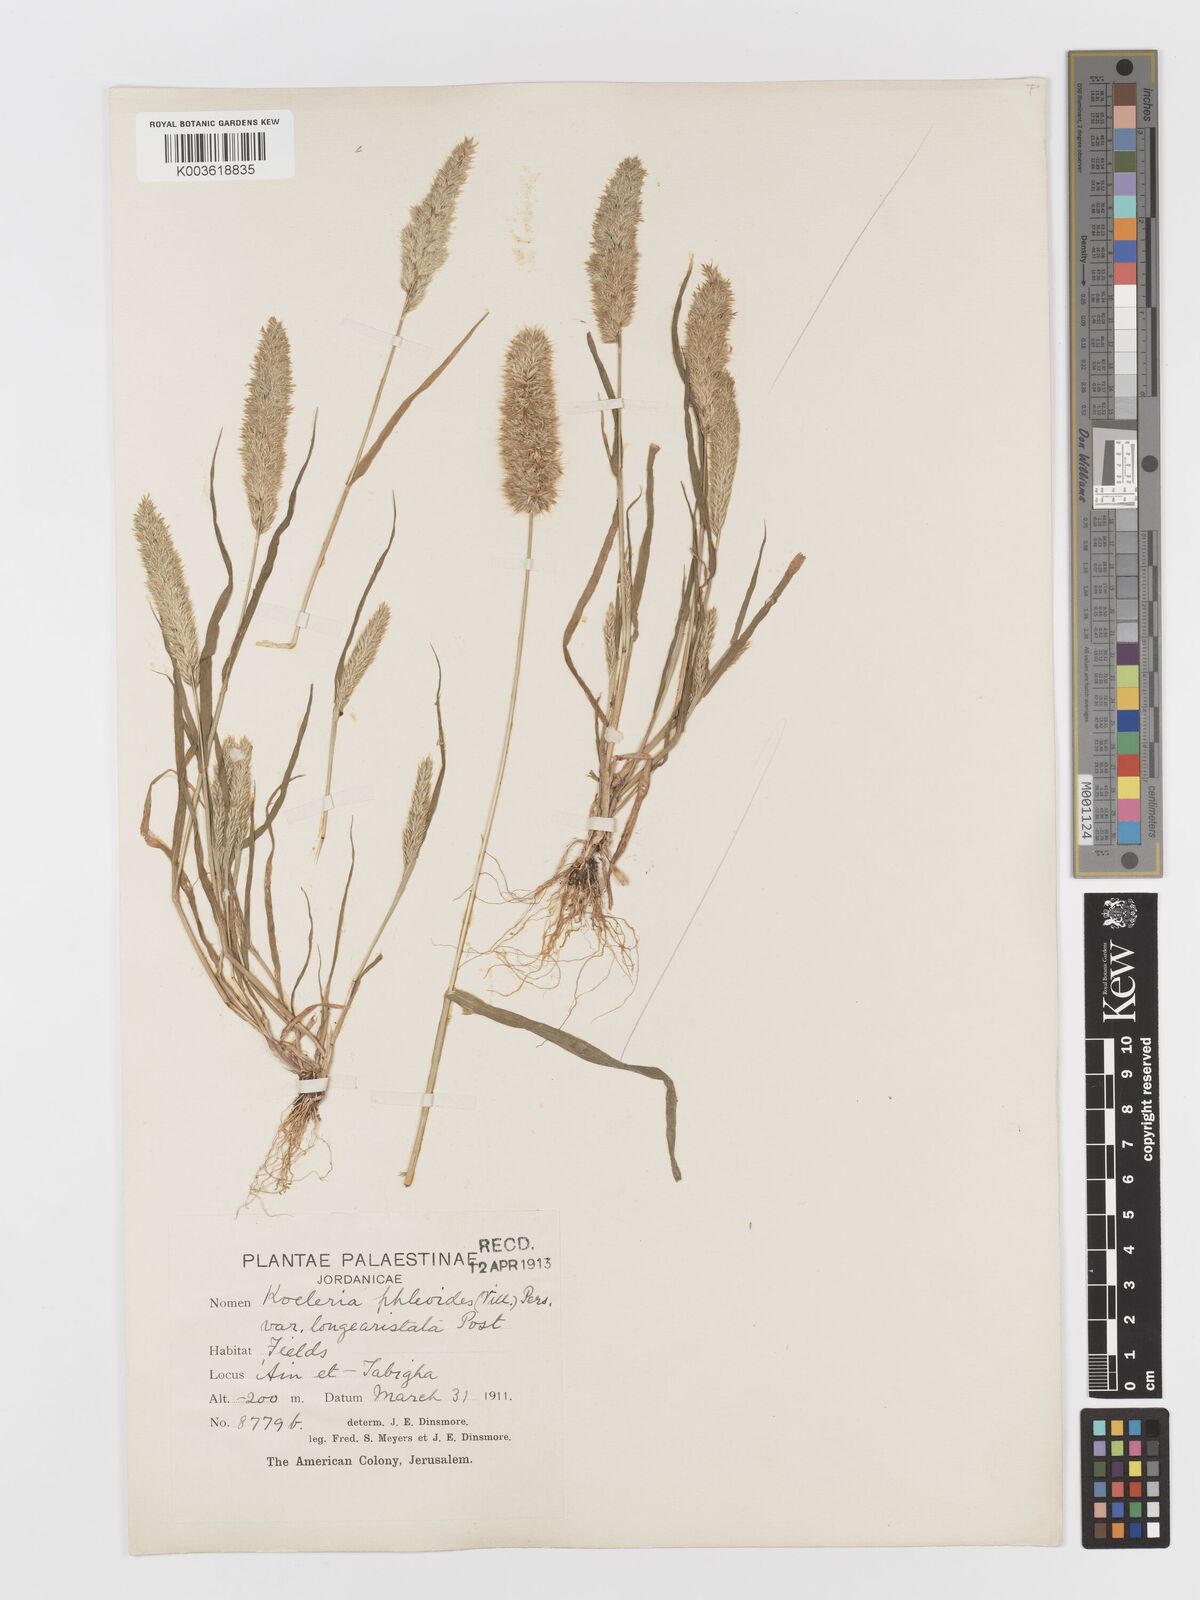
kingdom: Plantae
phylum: Tracheophyta
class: Liliopsida
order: Poales
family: Poaceae
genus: Rostraria
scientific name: Rostraria cristata
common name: Mediterranean hair-grass
